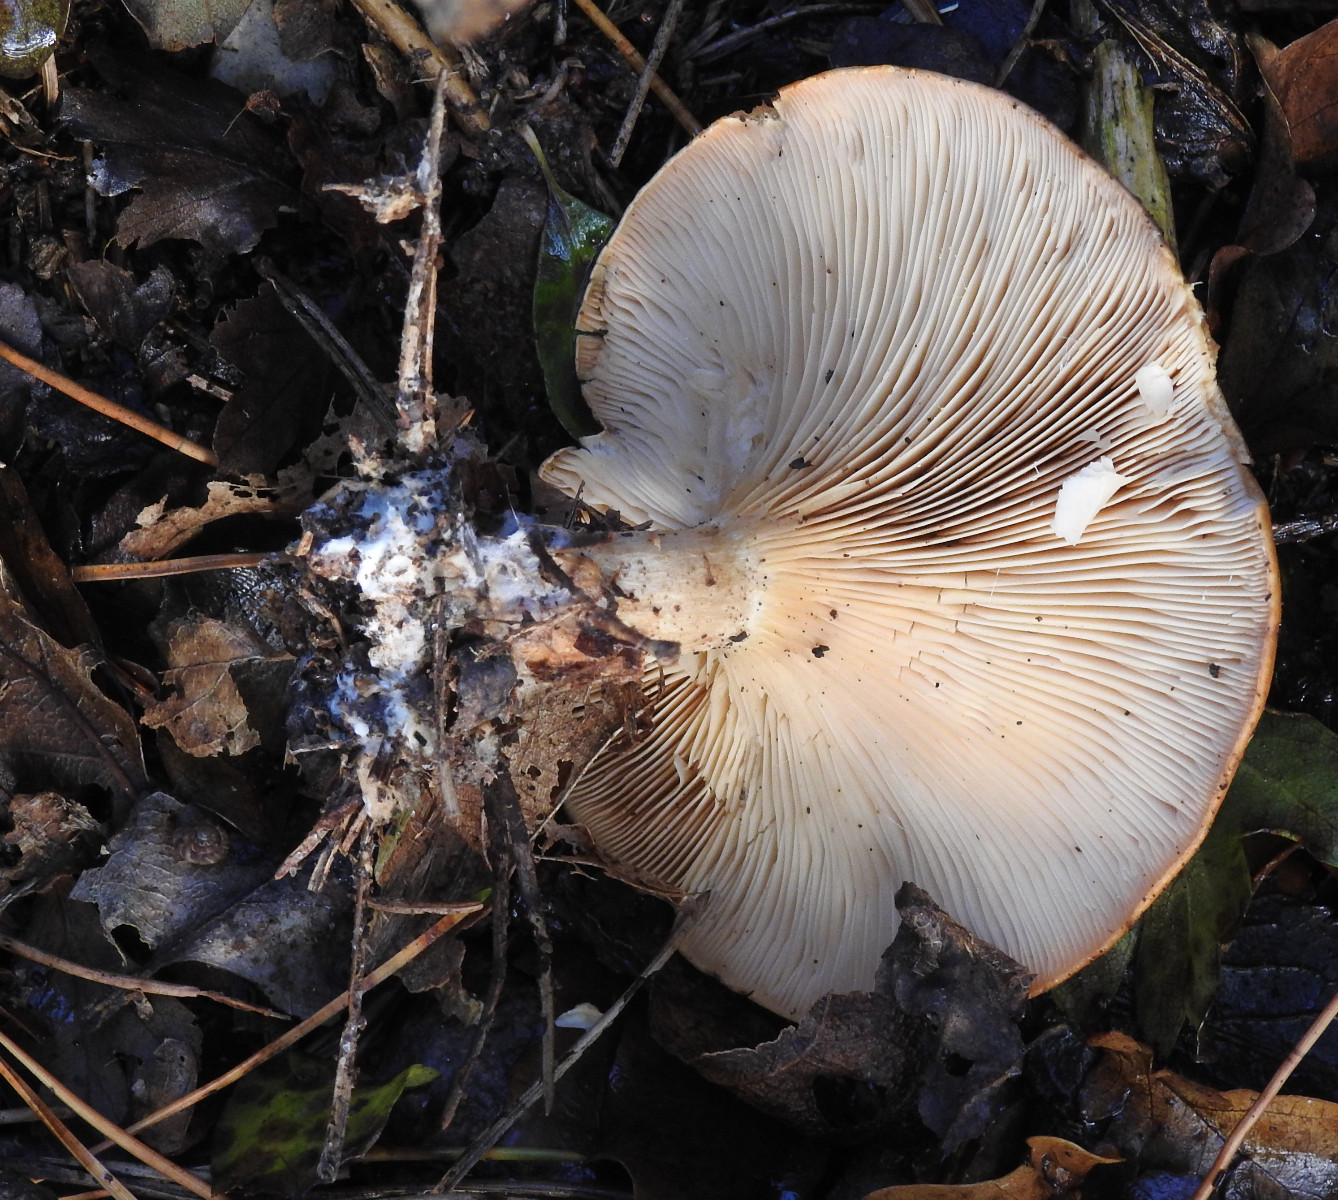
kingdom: Fungi
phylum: Basidiomycota
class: Agaricomycetes
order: Agaricales
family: Tricholomataceae
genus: Paralepista
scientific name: Paralepista flaccida
